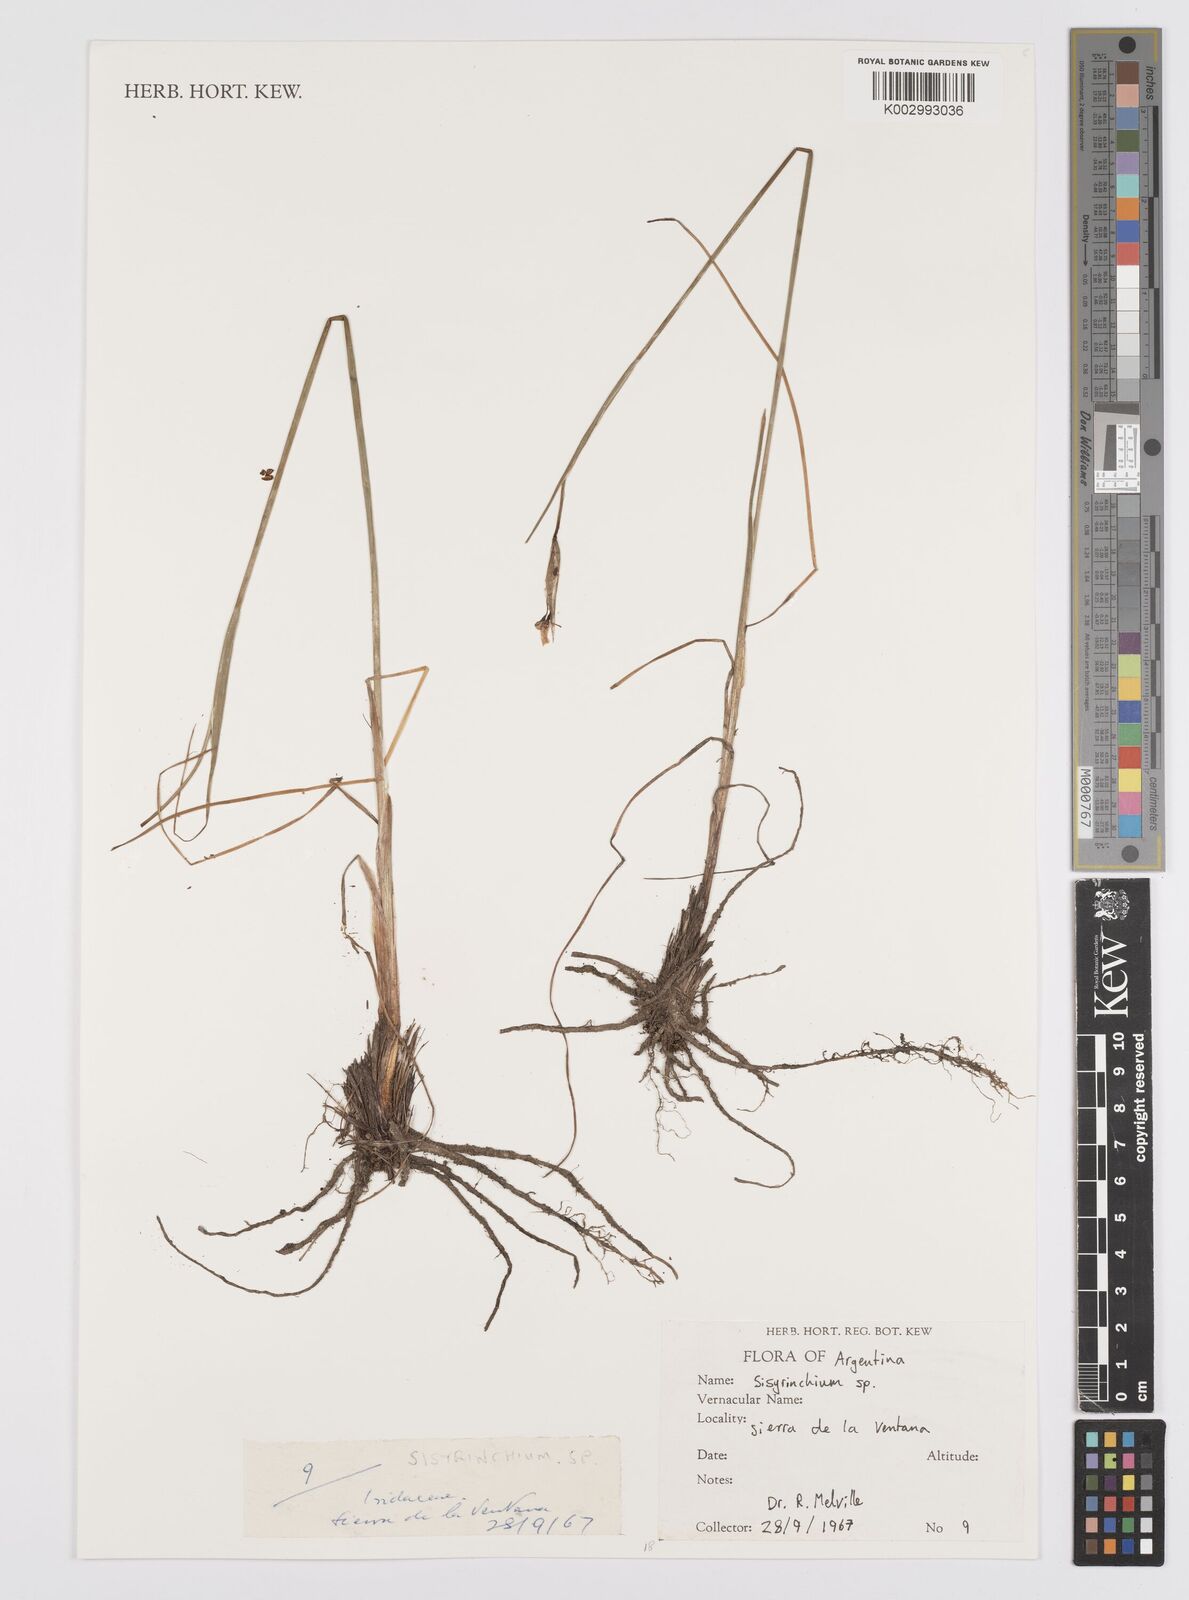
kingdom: Plantae
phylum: Tracheophyta
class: Liliopsida
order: Asparagales
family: Iridaceae
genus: Sisyrinchium
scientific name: Sisyrinchium
